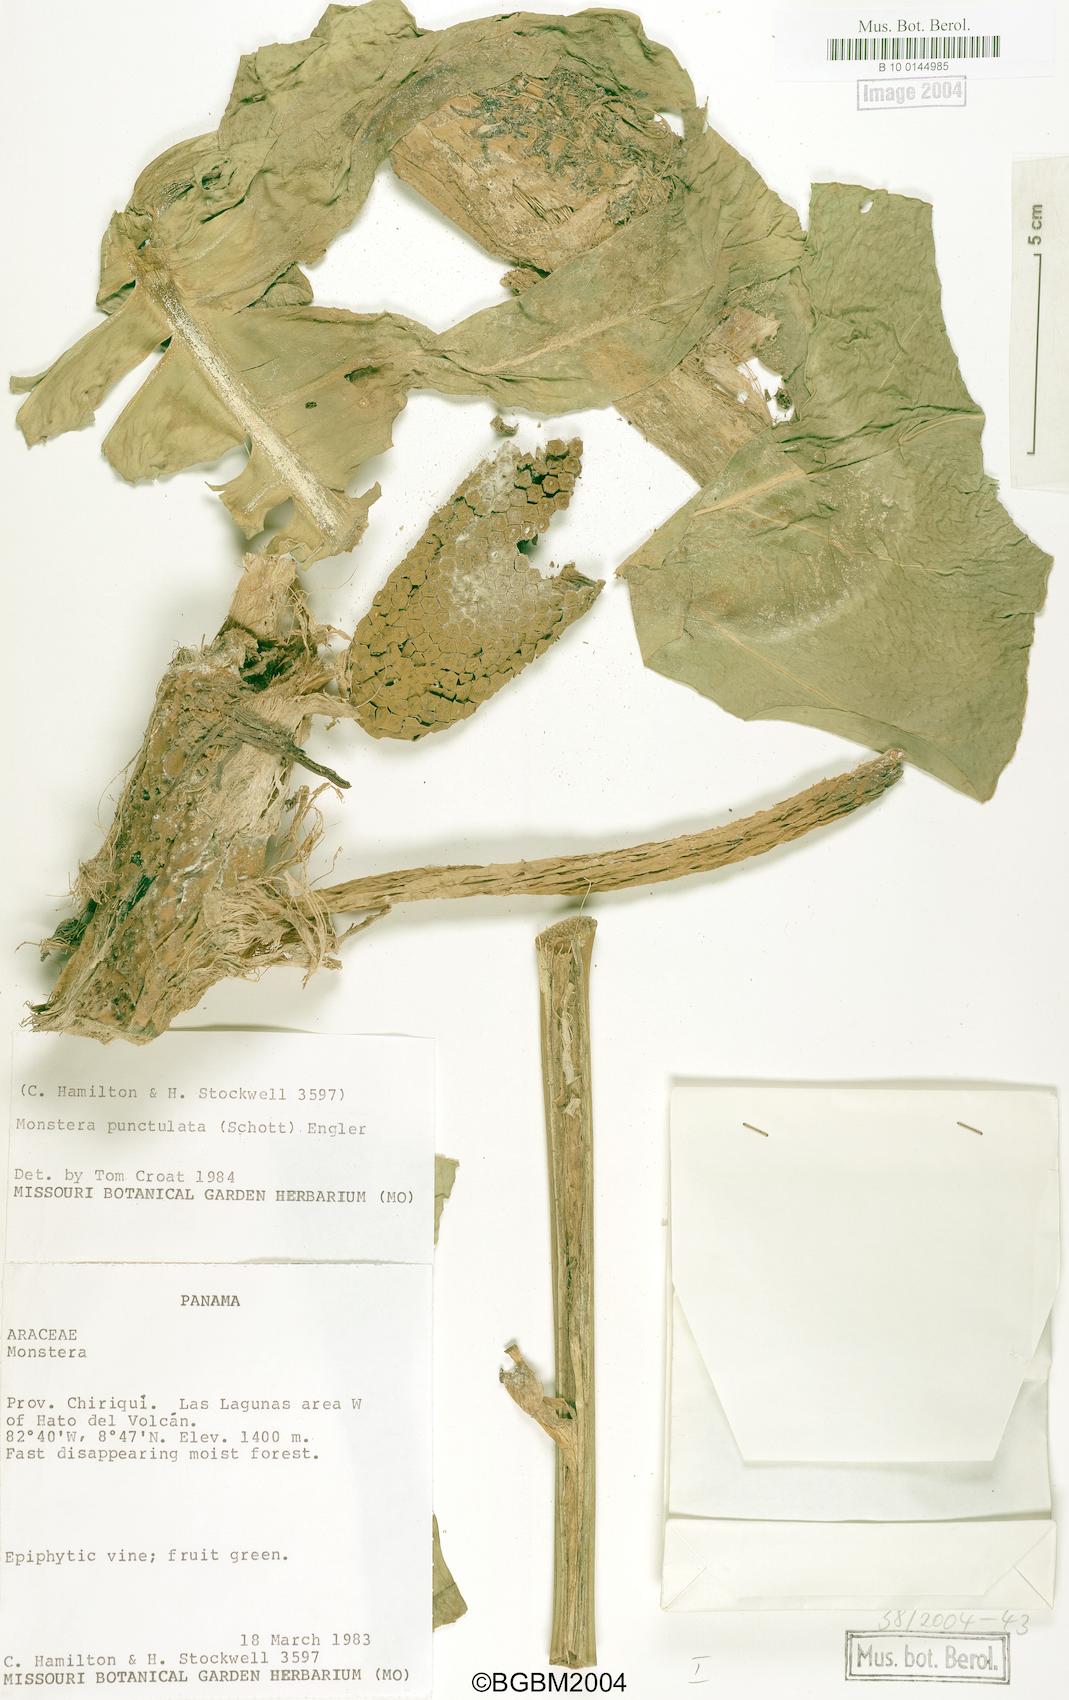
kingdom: Plantae
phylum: Tracheophyta
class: Liliopsida
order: Alismatales
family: Araceae
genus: Monstera
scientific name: Monstera punctulata
